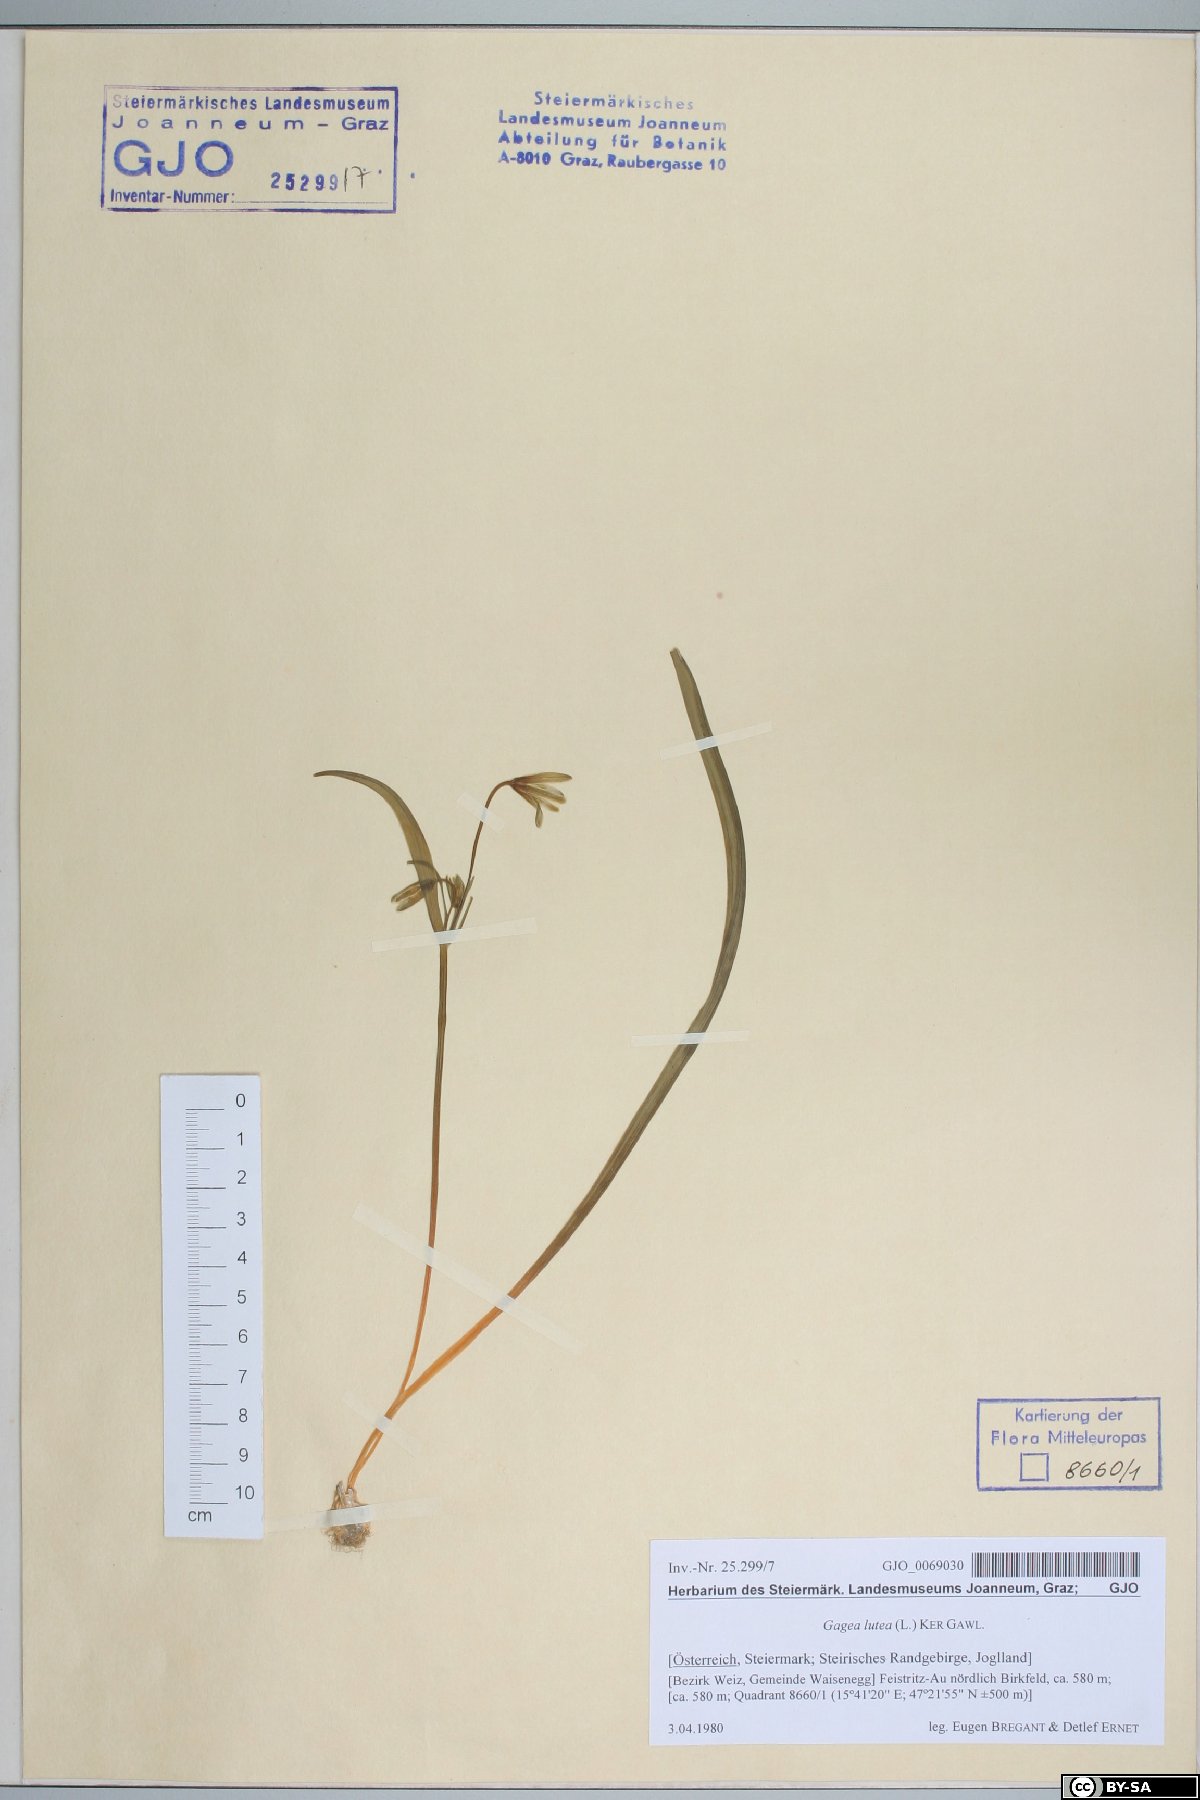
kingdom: Plantae
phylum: Tracheophyta
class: Liliopsida
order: Liliales
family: Liliaceae
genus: Gagea
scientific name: Gagea lutea
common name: Yellow star-of-bethlehem
